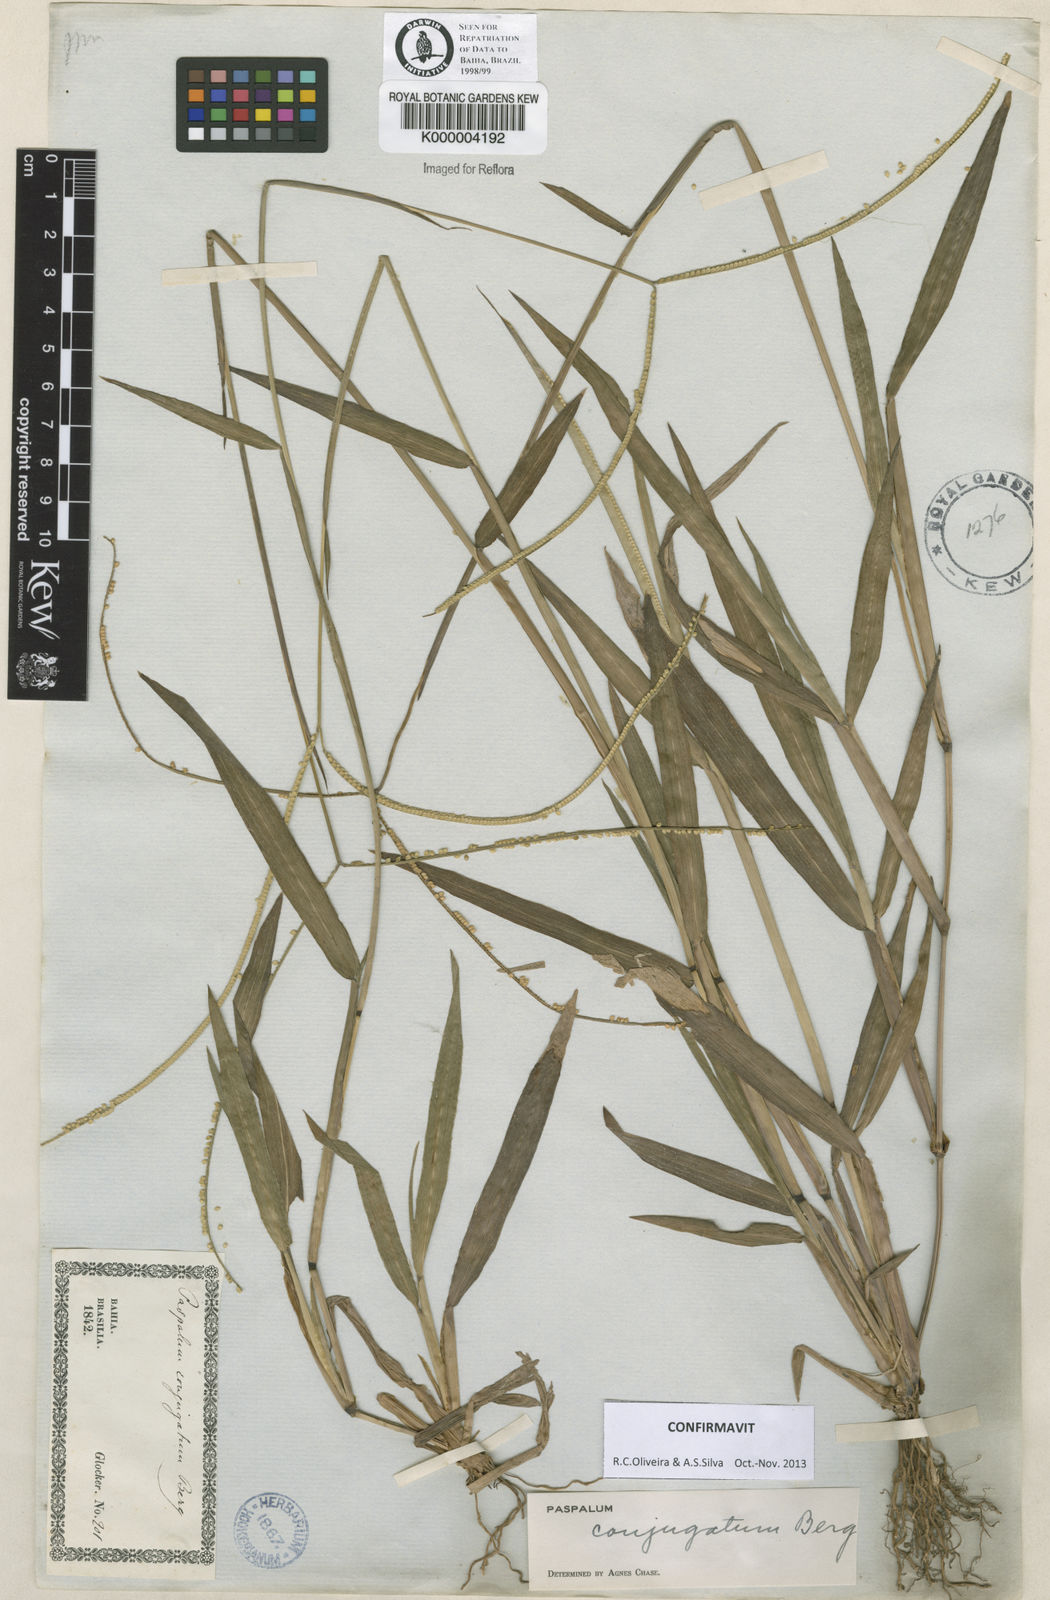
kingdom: Plantae
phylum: Tracheophyta
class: Liliopsida
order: Poales
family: Poaceae
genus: Paspalum
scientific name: Paspalum conjugatum
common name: Hilograss
